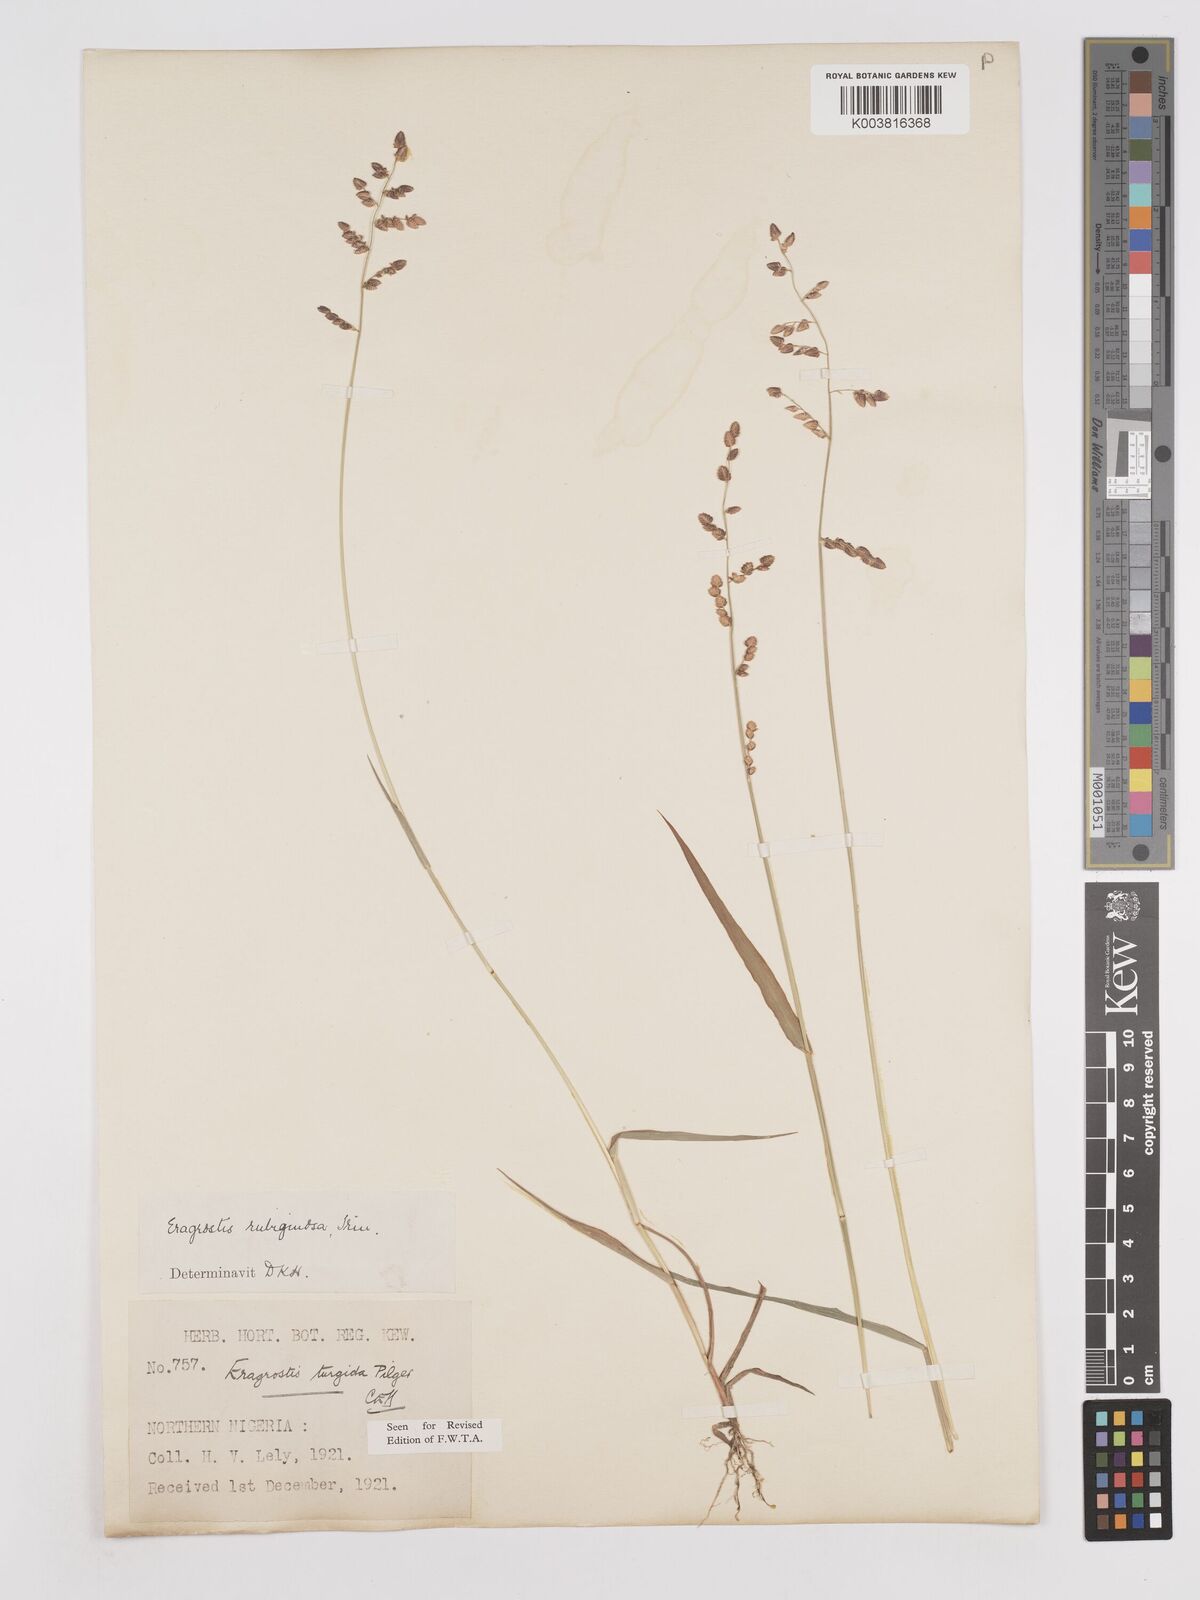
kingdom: Plantae
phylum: Tracheophyta
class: Liliopsida
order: Poales
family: Poaceae
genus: Eragrostis
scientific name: Eragrostis turgida
